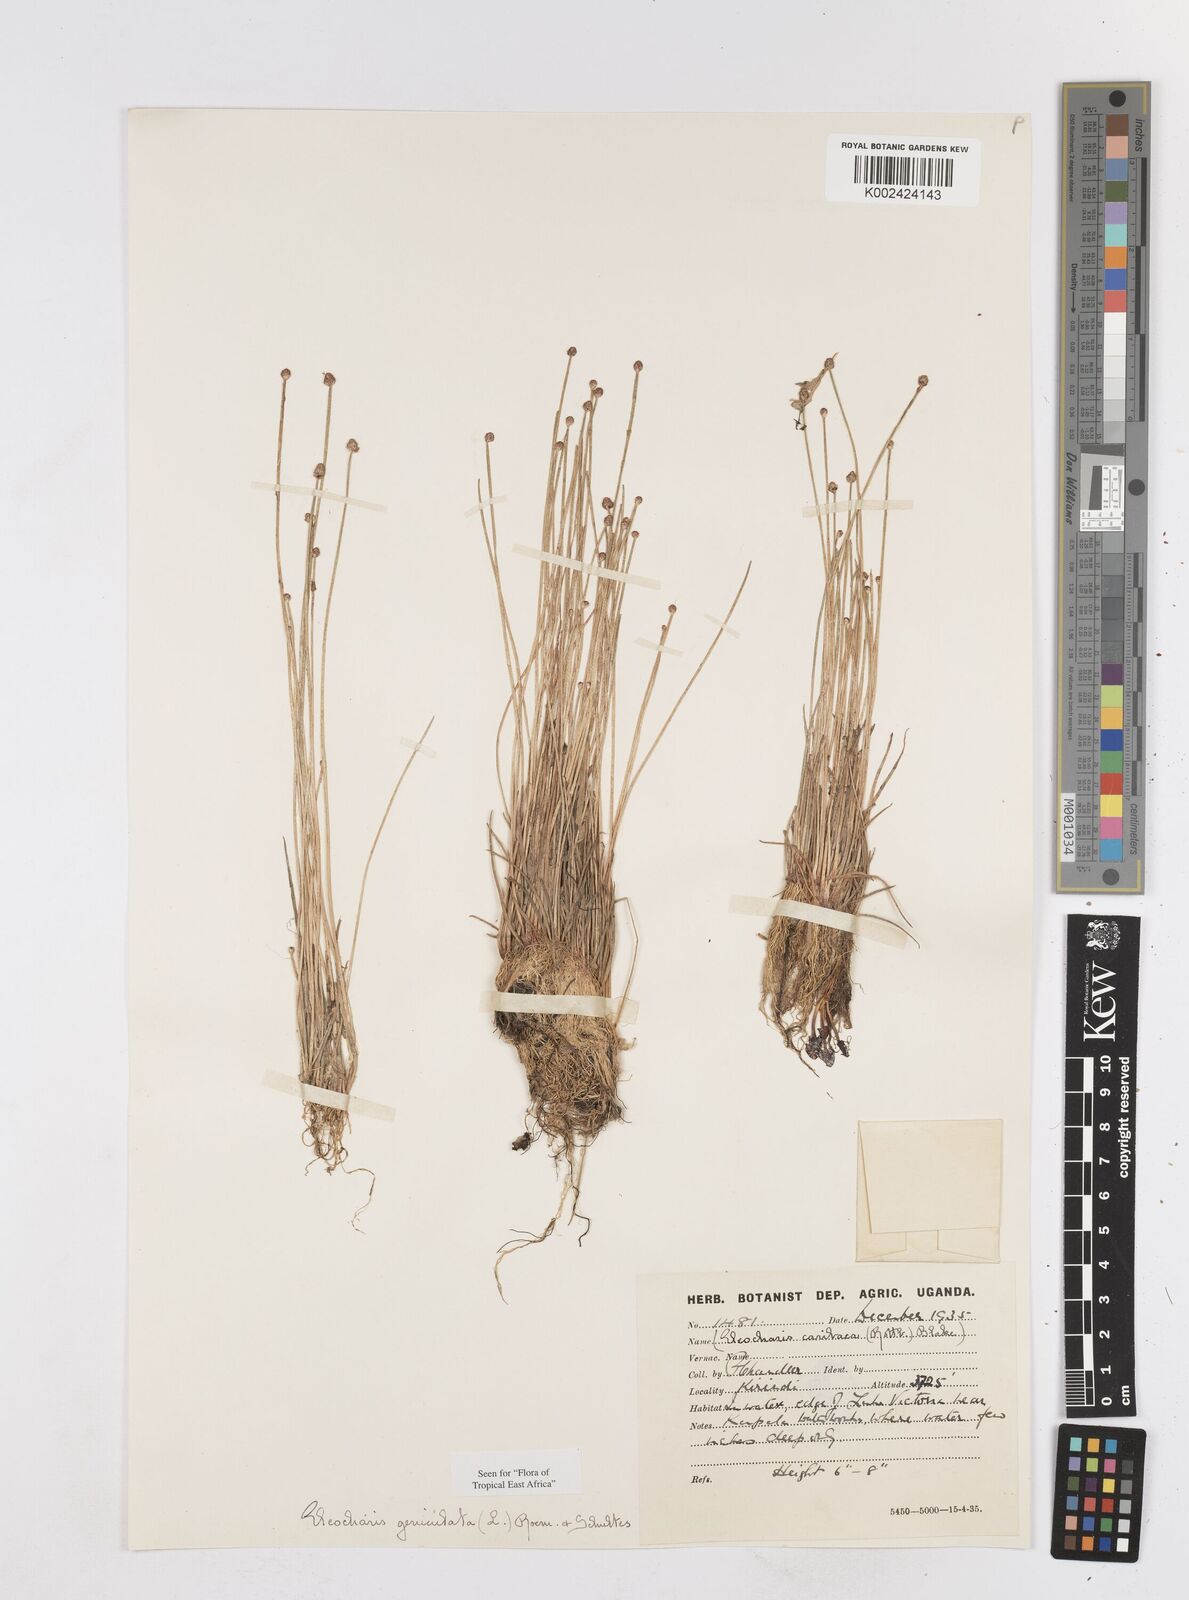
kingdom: Plantae
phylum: Tracheophyta
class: Liliopsida
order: Poales
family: Cyperaceae
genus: Eleocharis
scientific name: Eleocharis geniculata
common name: Canada spikesedge
